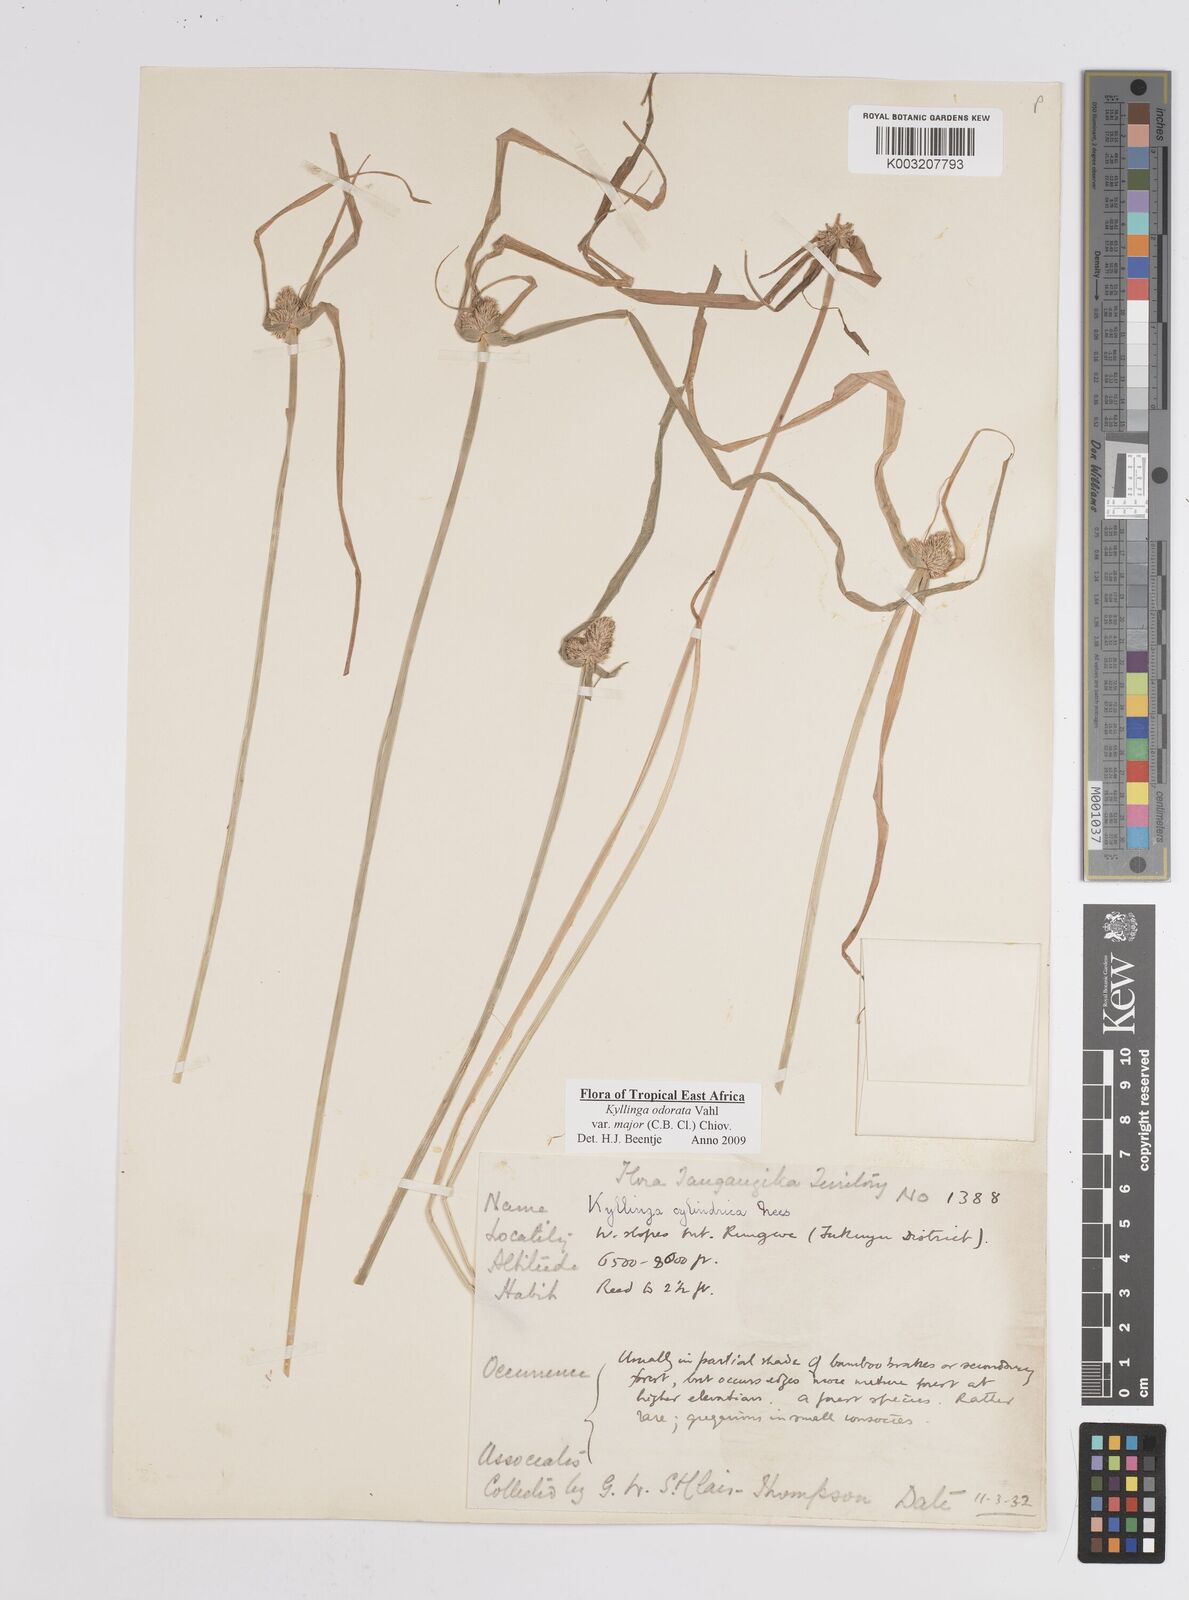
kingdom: Plantae
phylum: Tracheophyta
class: Liliopsida
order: Poales
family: Cyperaceae
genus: Cyperus
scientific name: Cyperus
